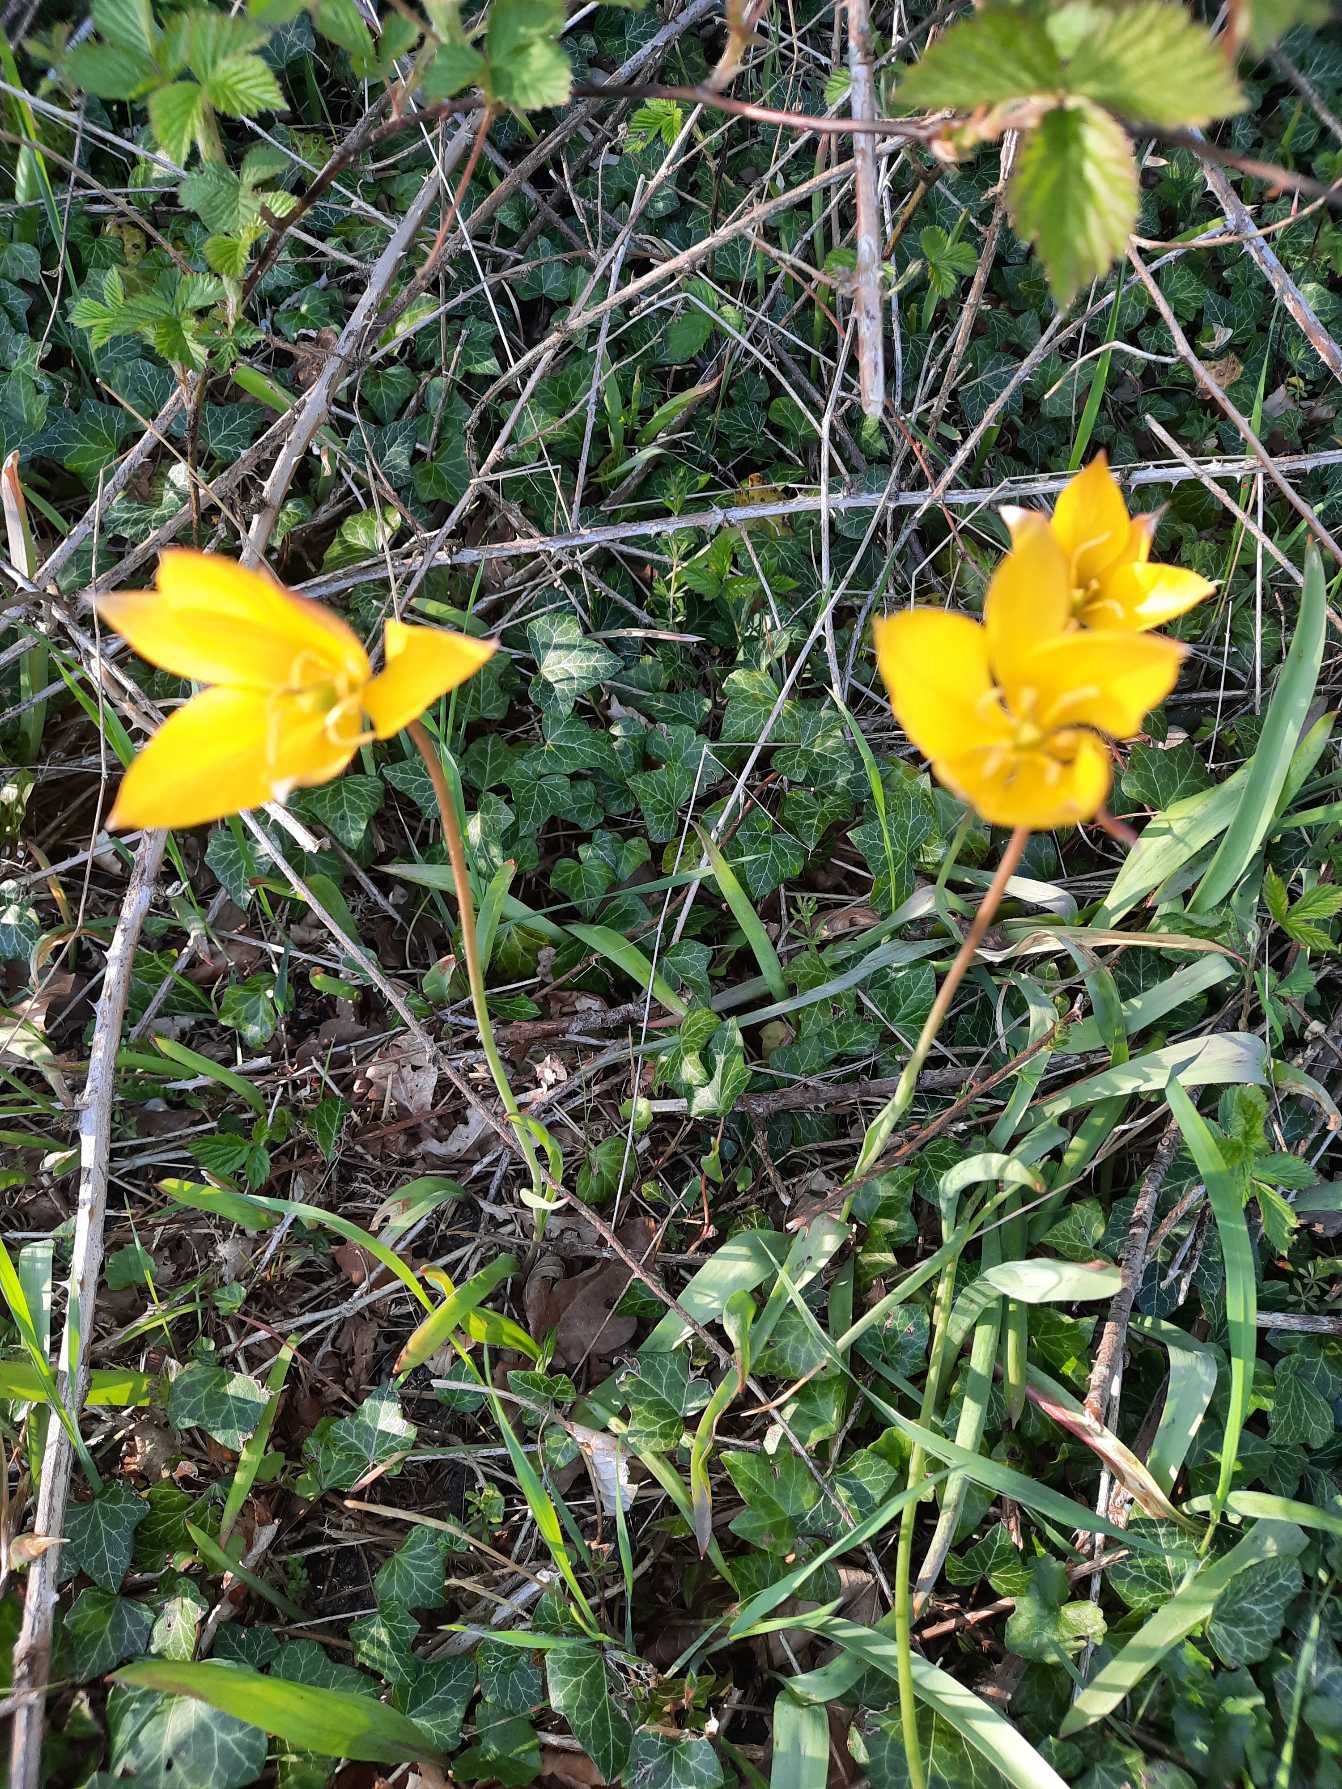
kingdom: Plantae
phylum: Tracheophyta
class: Liliopsida
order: Liliales
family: Liliaceae
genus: Tulipa
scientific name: Tulipa sylvestris
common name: Vild tulipan
